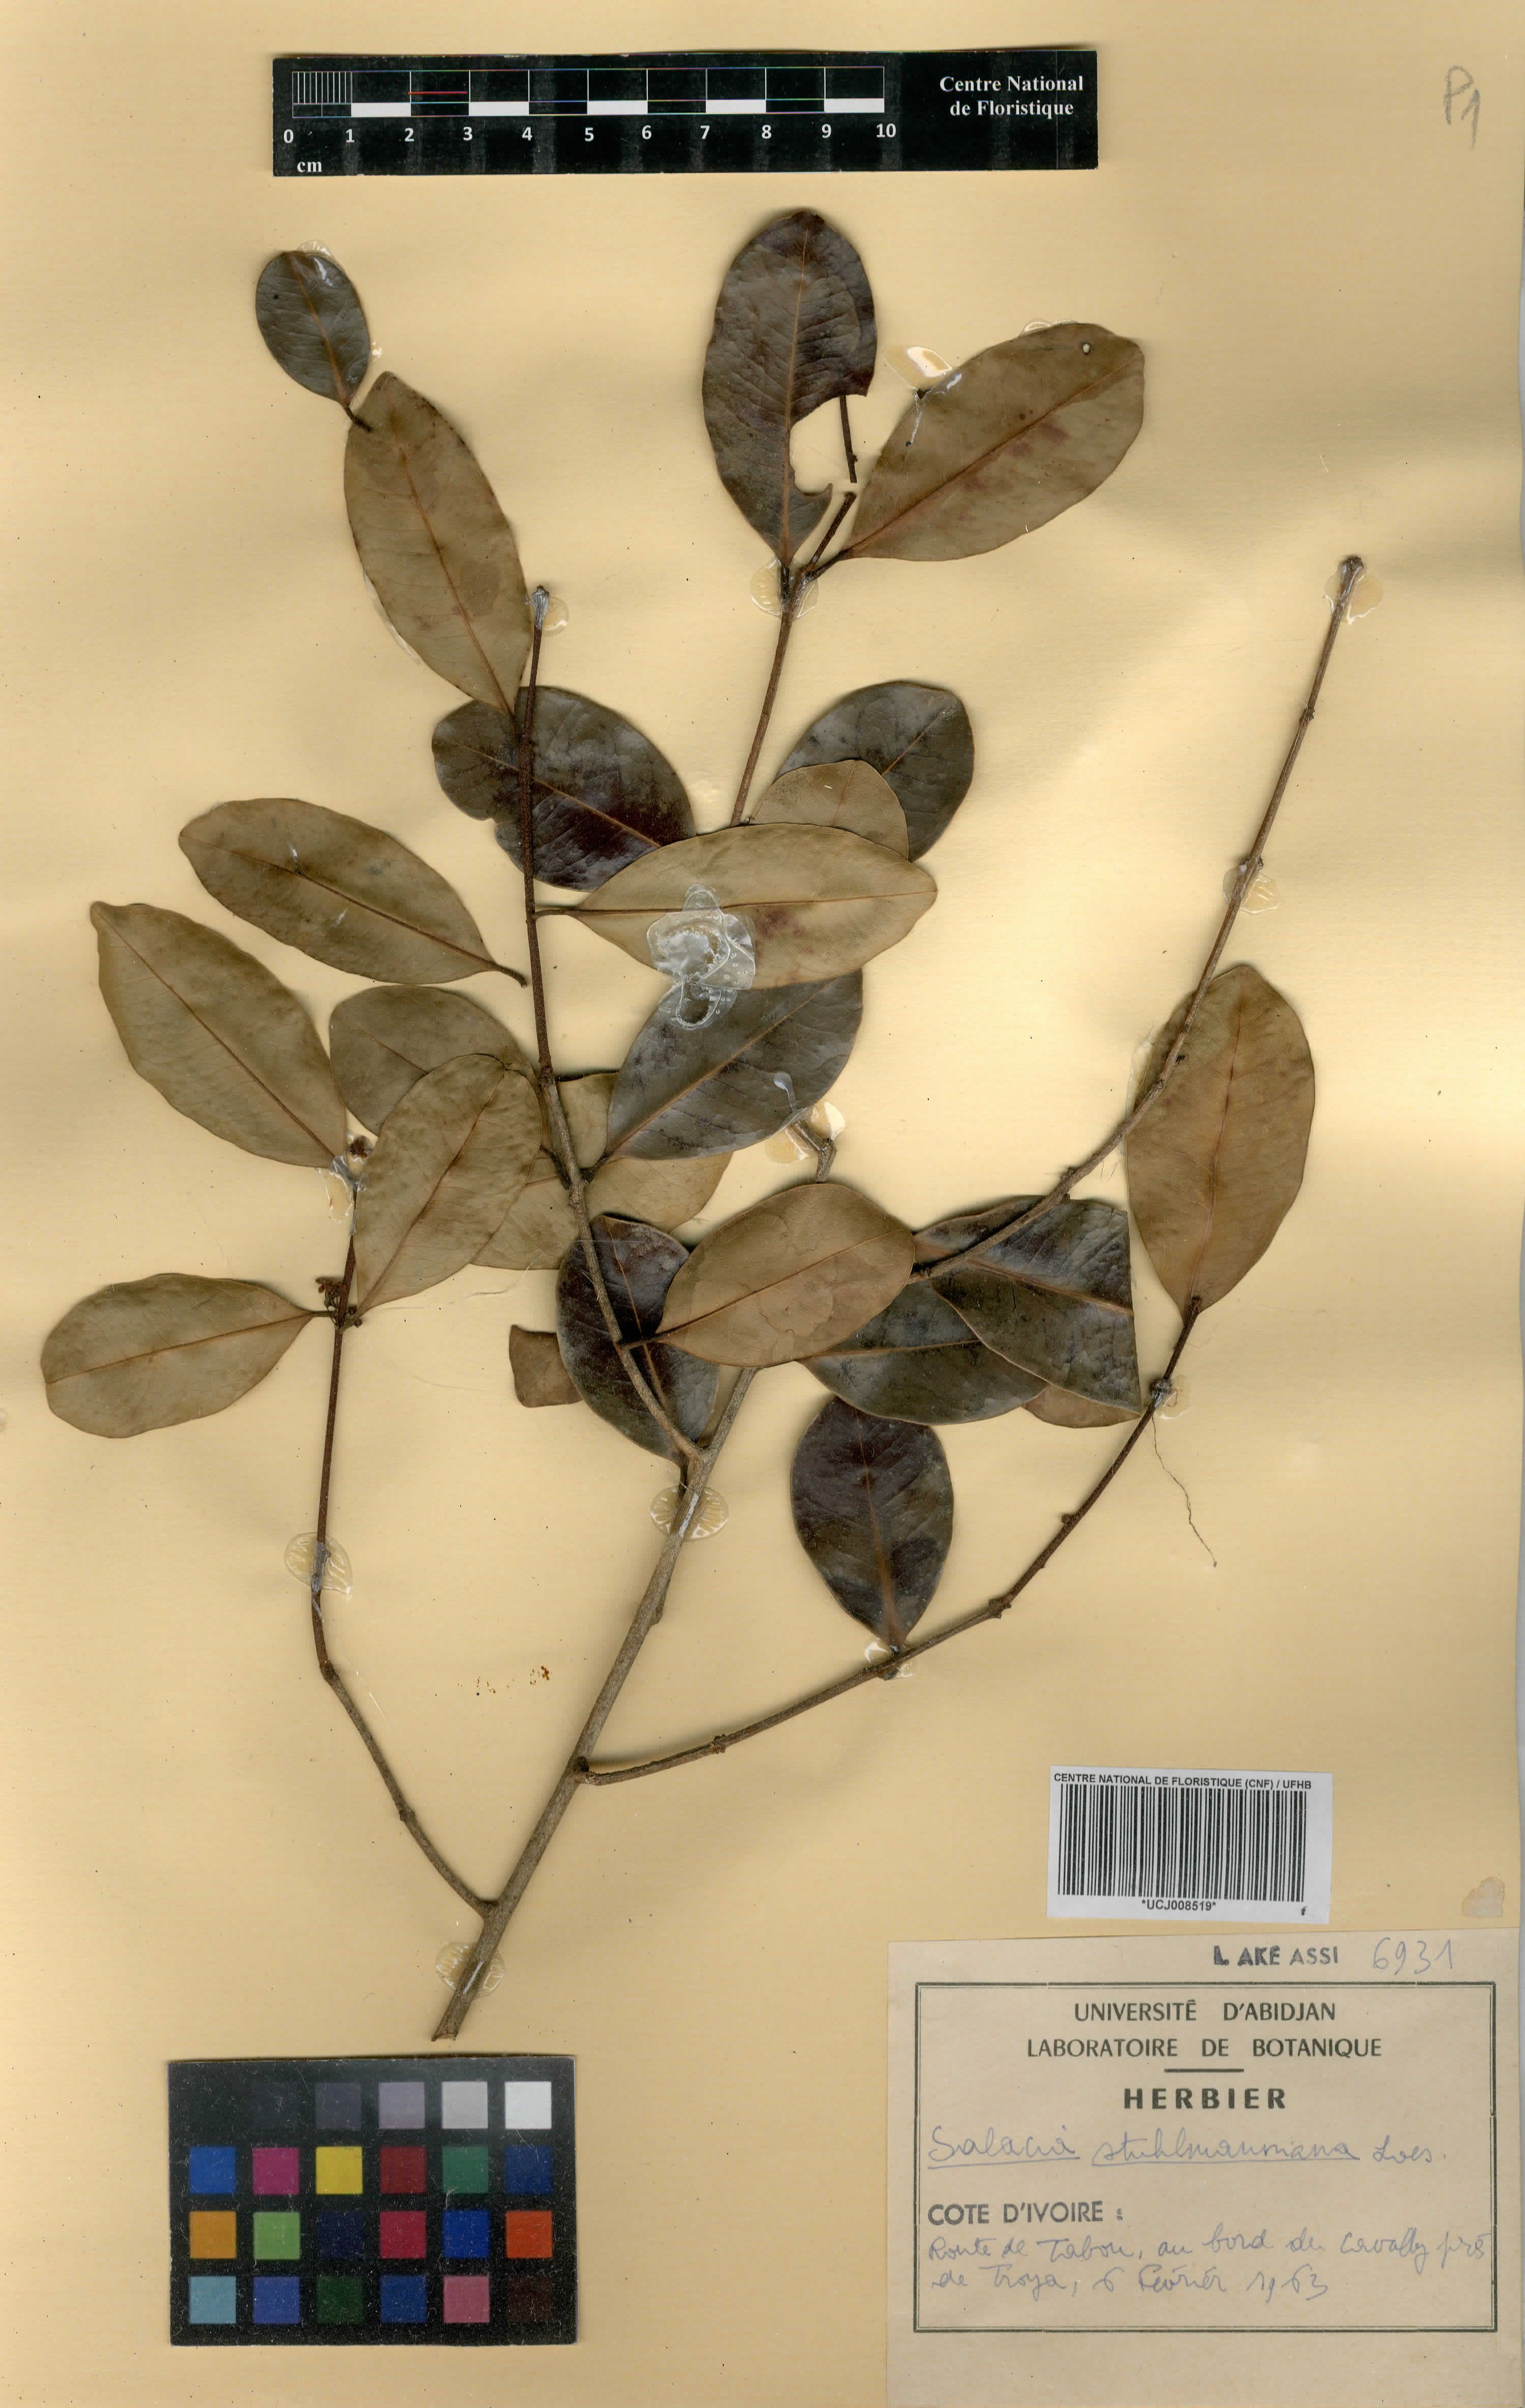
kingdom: Plantae
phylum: Tracheophyta
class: Magnoliopsida
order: Celastrales
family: Celastraceae
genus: Salacia
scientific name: Salacia stuhlmanniana
